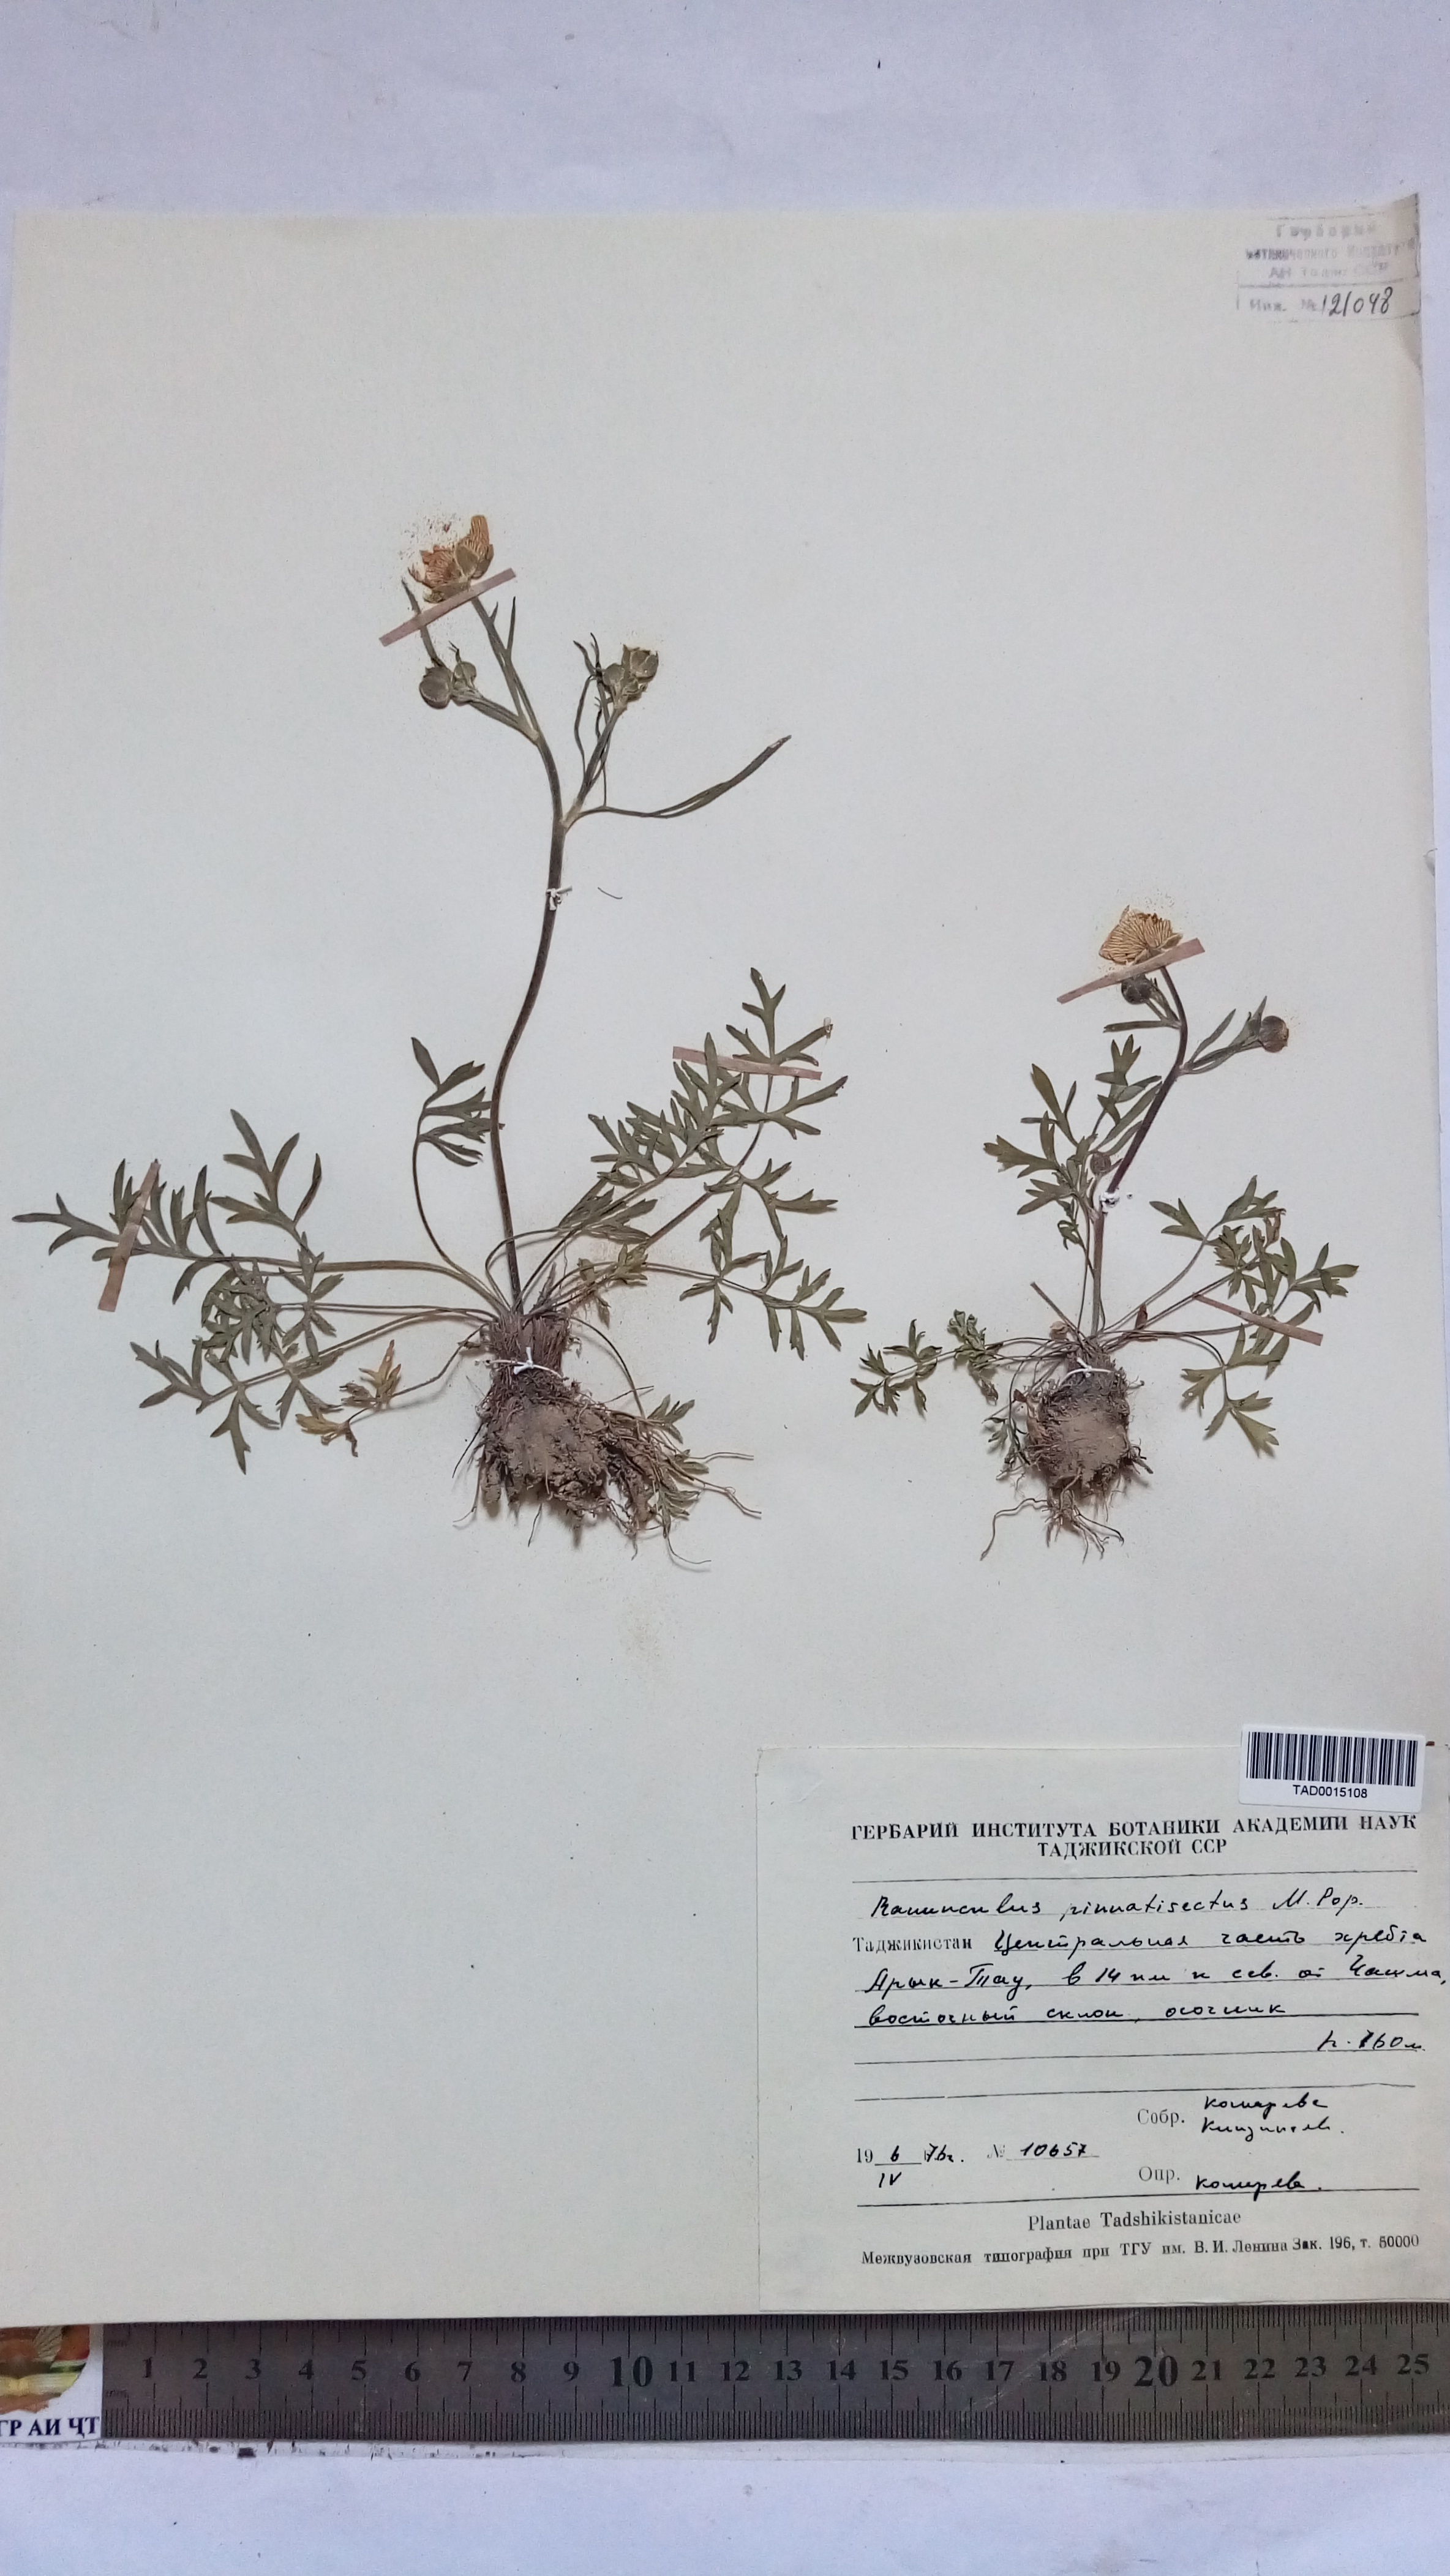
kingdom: Plantae
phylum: Tracheophyta
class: Magnoliopsida
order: Ranunculales
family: Ranunculaceae
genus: Ranunculus
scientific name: Ranunculus pinnatisectus
